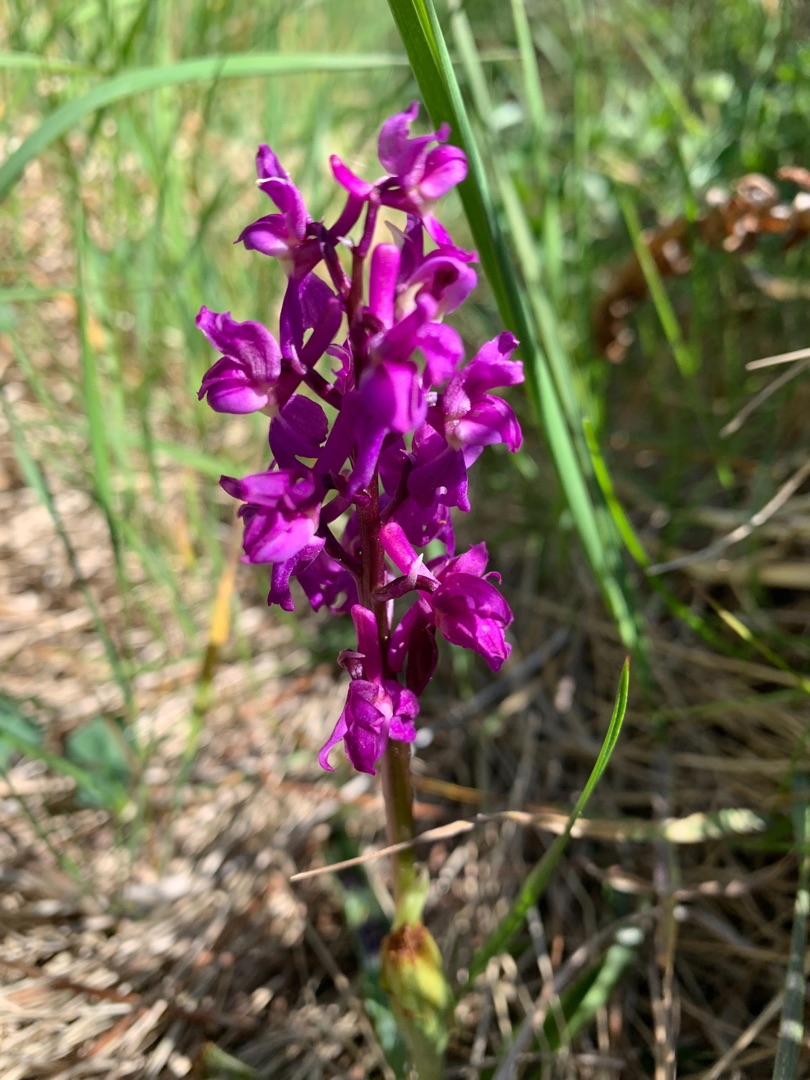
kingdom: Plantae
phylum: Tracheophyta
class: Liliopsida
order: Asparagales
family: Orchidaceae
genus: Orchis
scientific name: Orchis mascula
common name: Tyndakset gøgeurt
